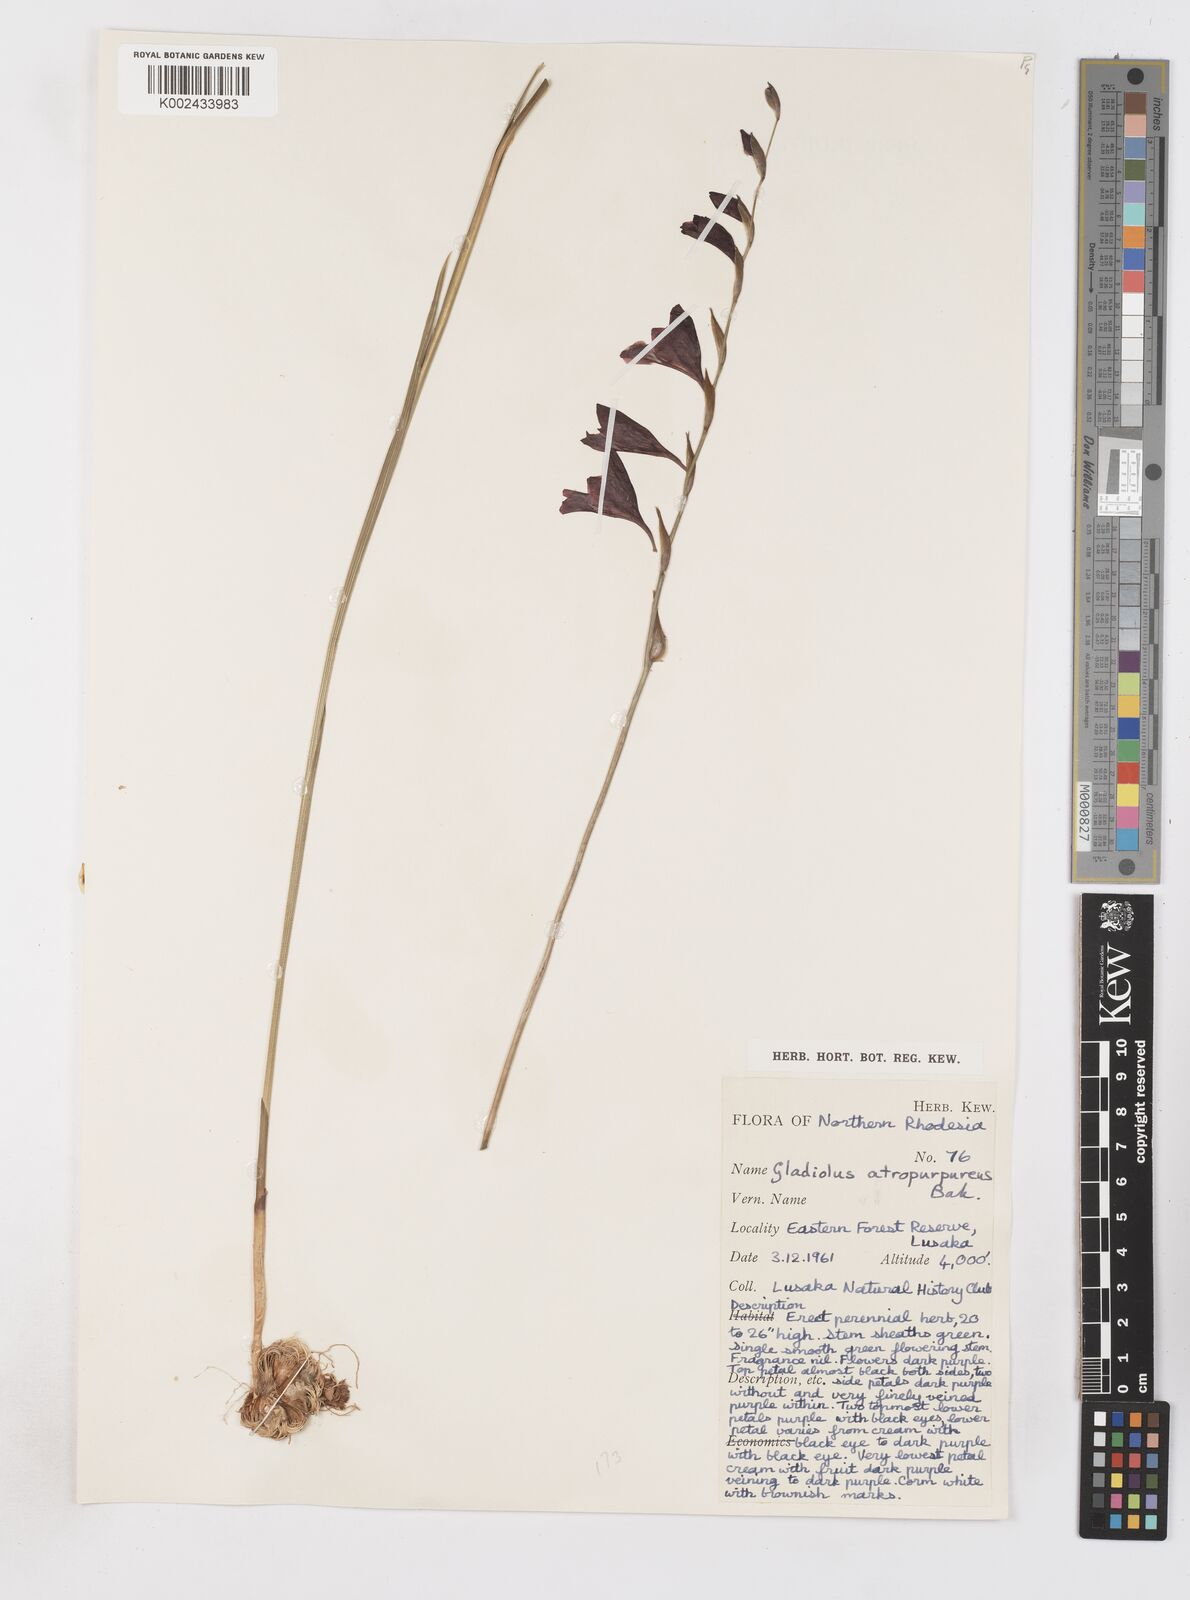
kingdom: Plantae
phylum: Tracheophyta
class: Liliopsida
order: Asparagales
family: Iridaceae
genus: Gladiolus
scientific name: Gladiolus atropurpureus
